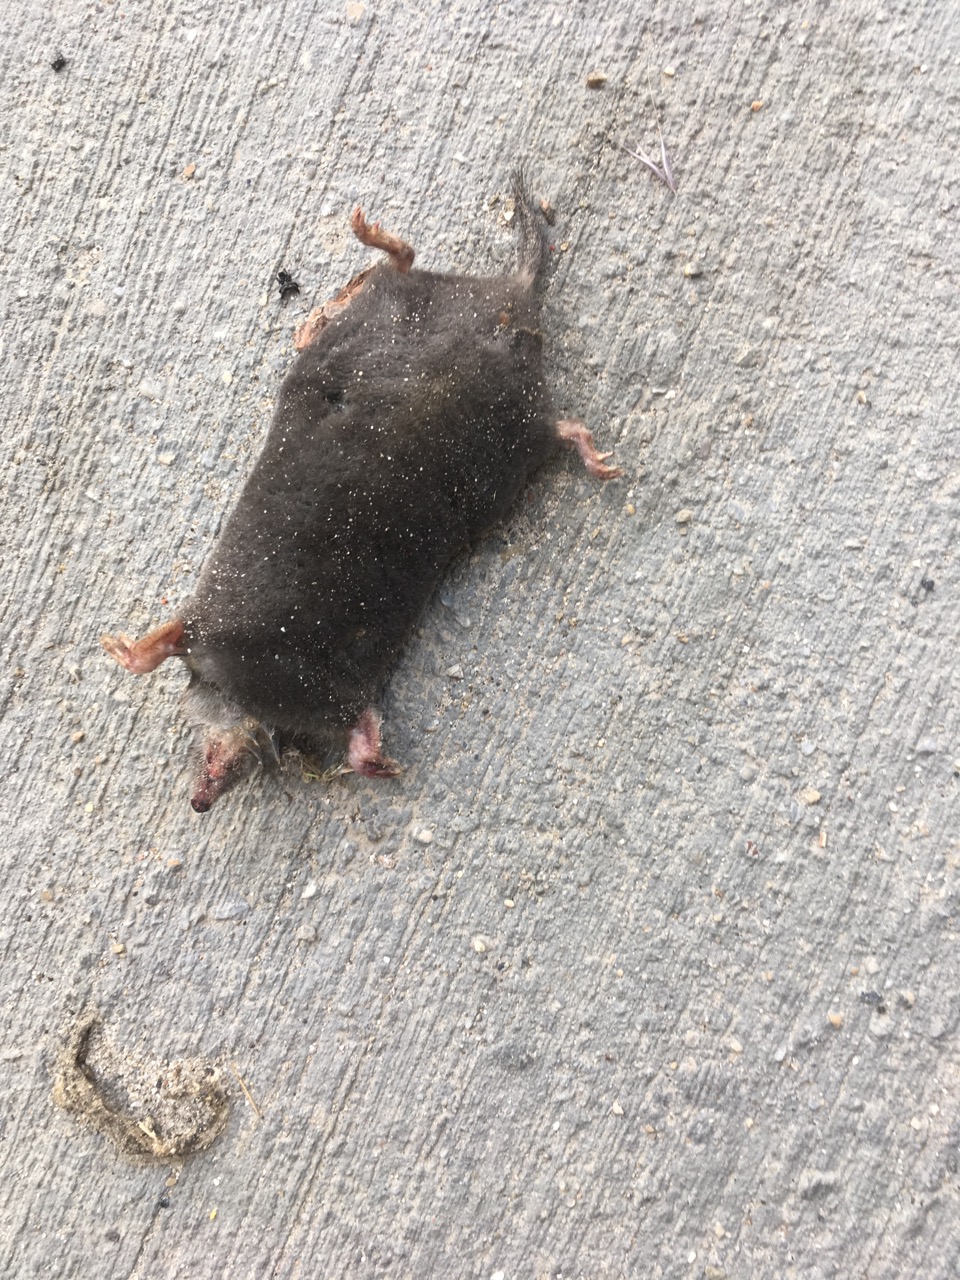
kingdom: Animalia
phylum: Chordata
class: Mammalia
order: Soricomorpha
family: Talpidae
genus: Talpa
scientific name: Talpa europaea
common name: European mole
